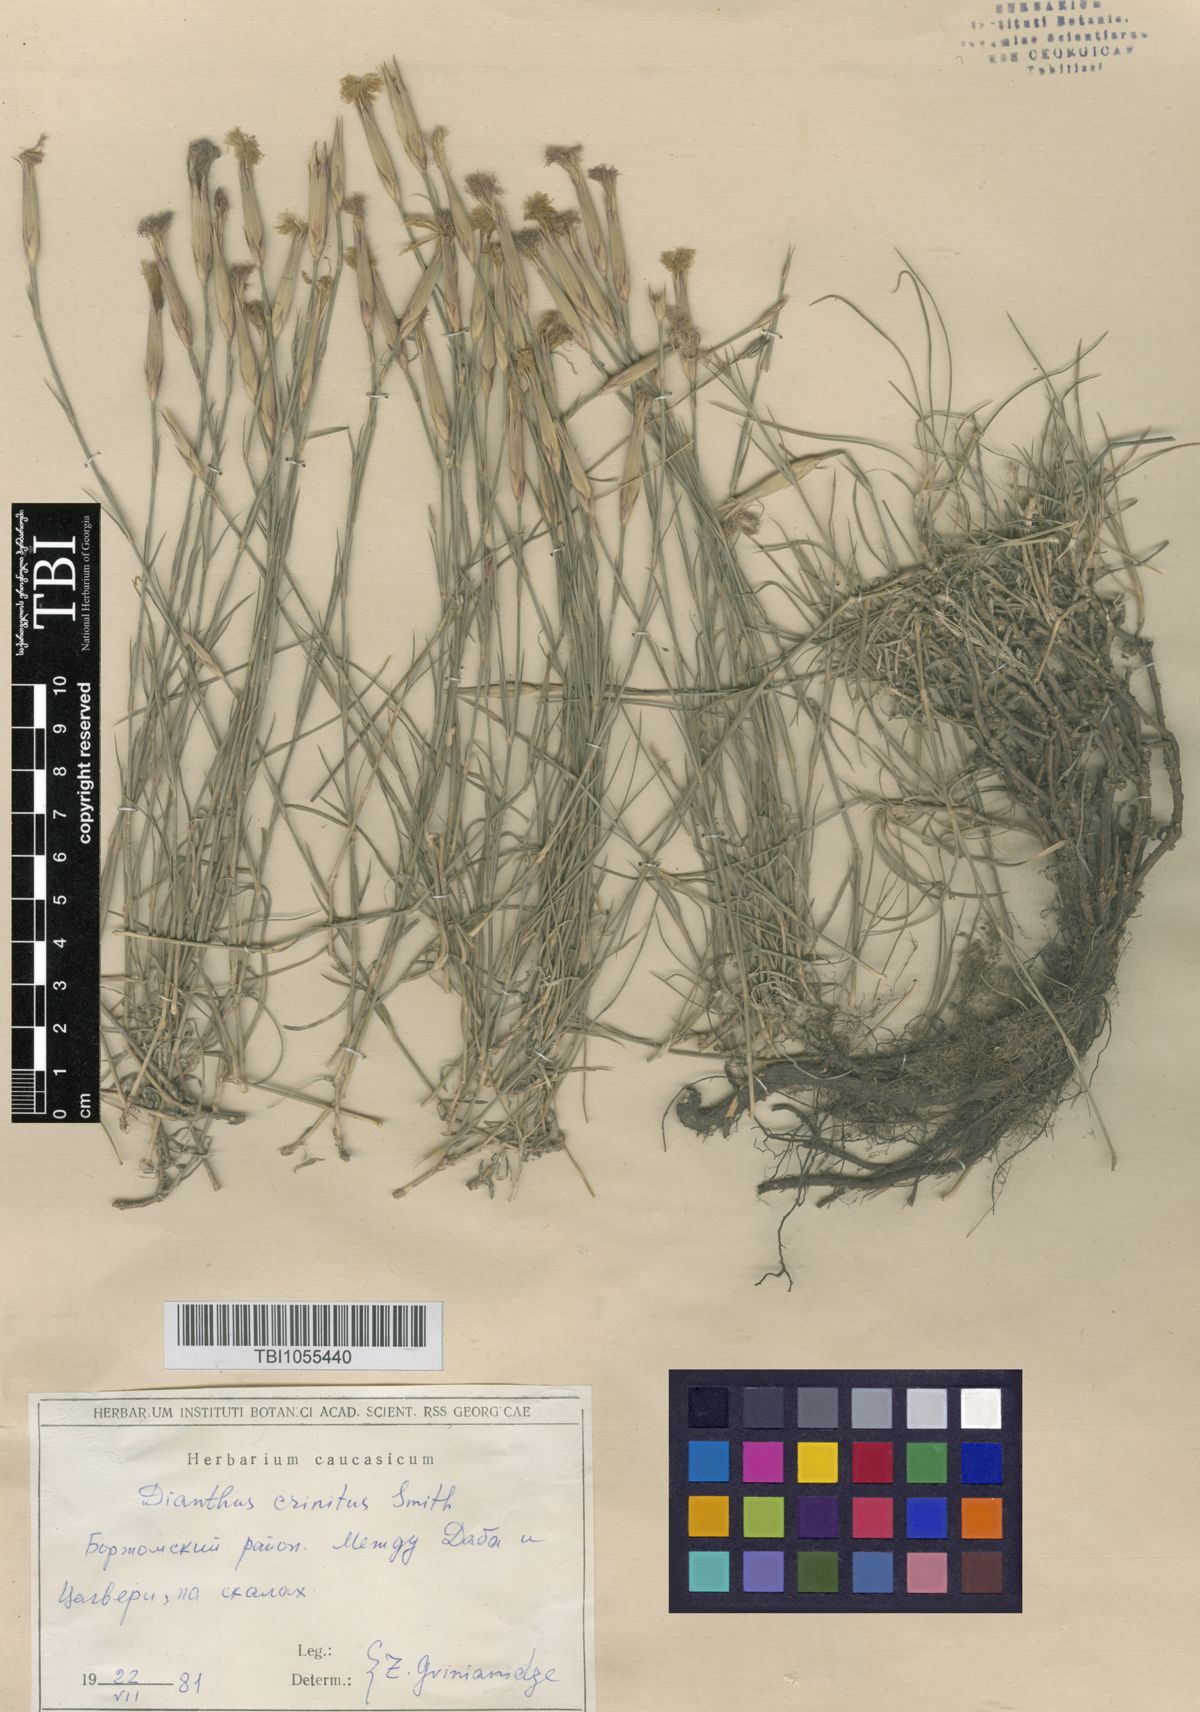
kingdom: Plantae
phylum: Tracheophyta
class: Magnoliopsida
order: Caryophyllales
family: Caryophyllaceae
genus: Dianthus
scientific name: Dianthus crinitus
